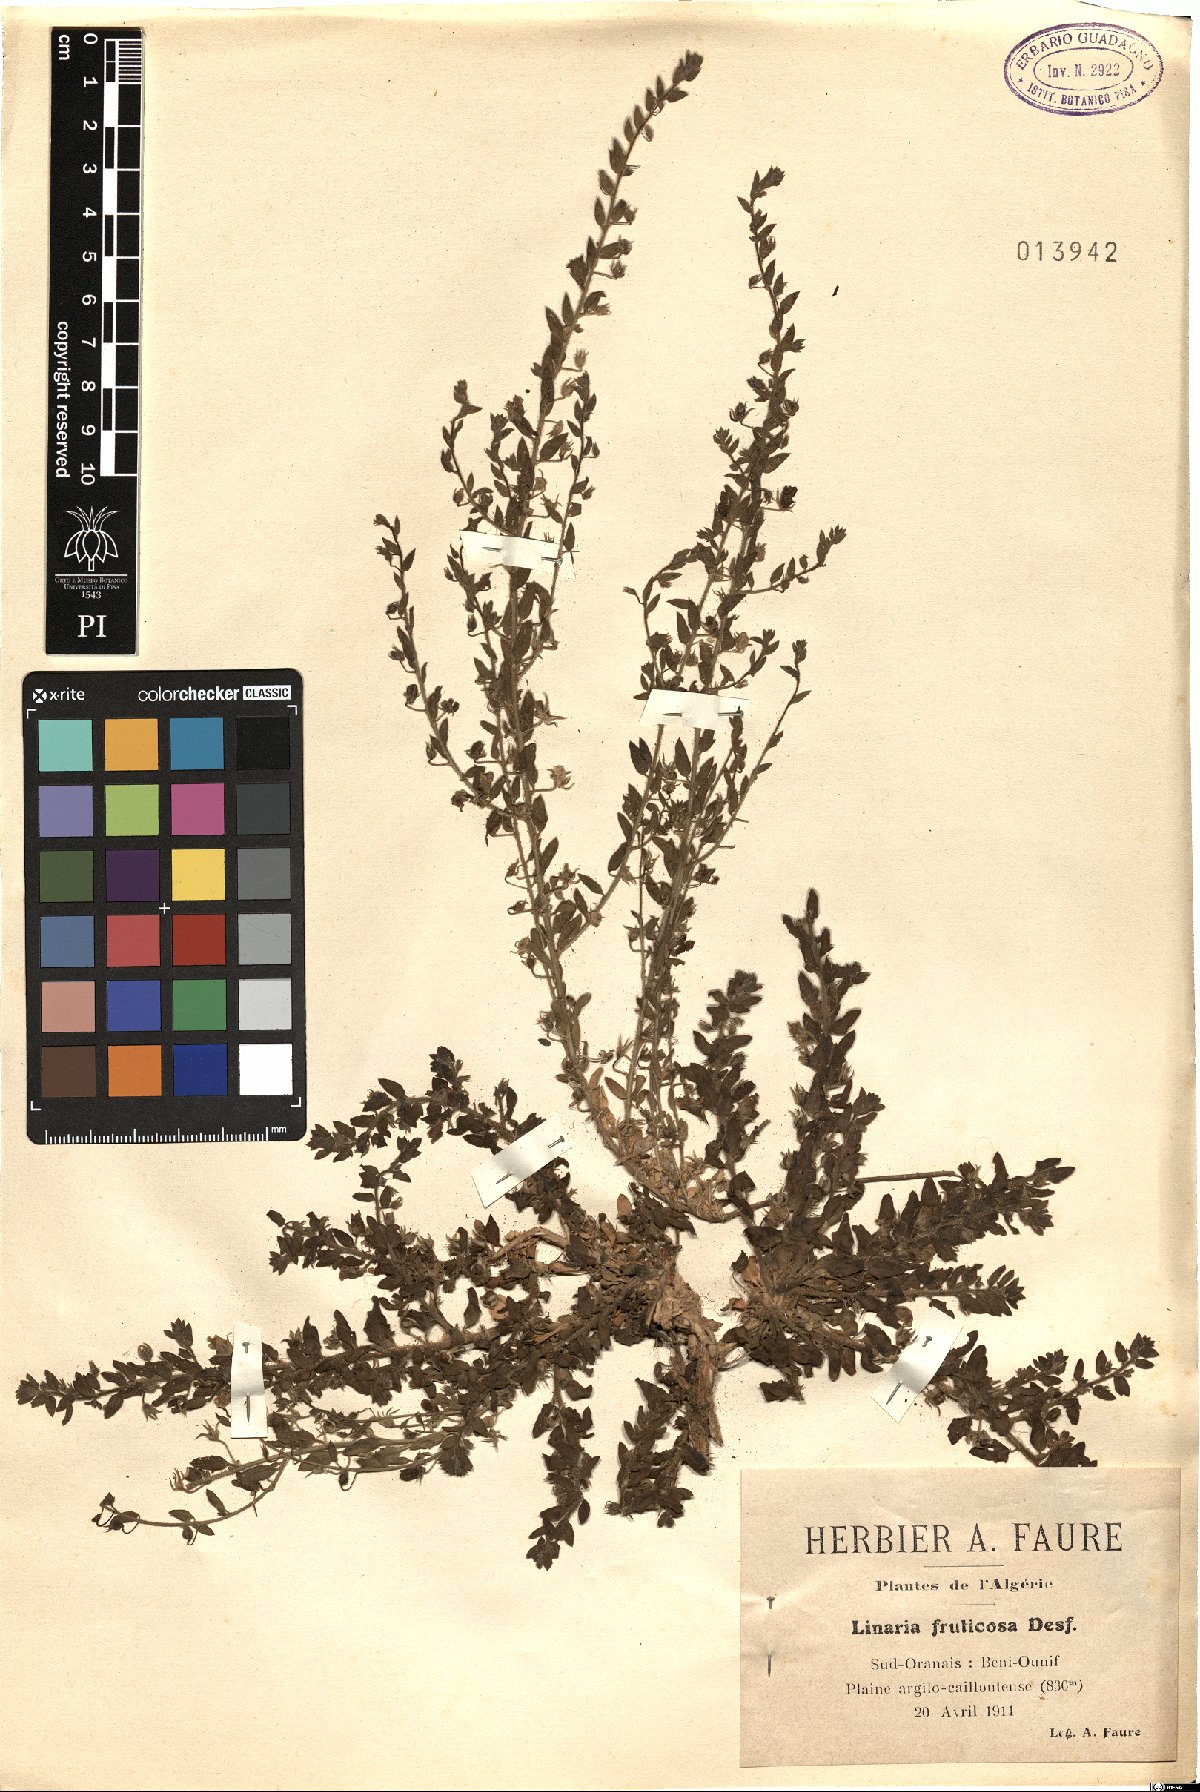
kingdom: Plantae
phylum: Tracheophyta
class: Magnoliopsida
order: Lamiales
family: Plantaginaceae
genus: Kickxia
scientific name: Kickxia aegyptiaca
